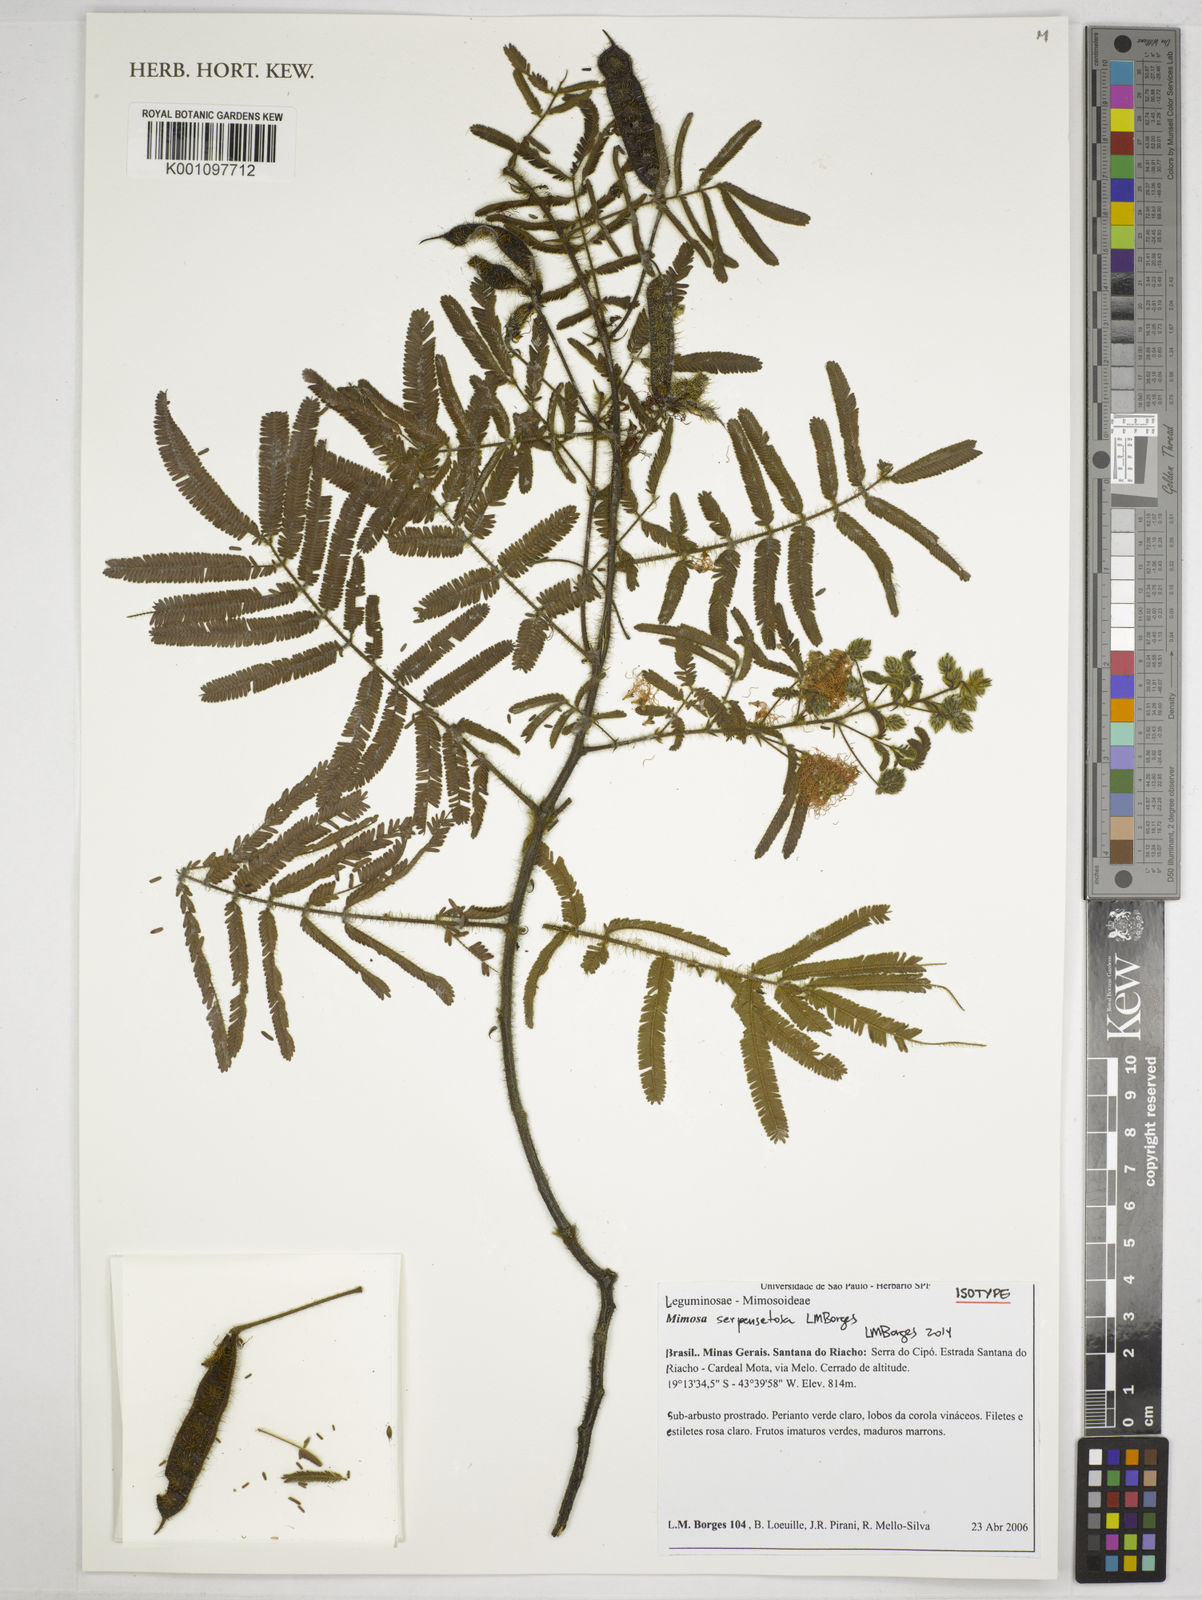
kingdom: Plantae
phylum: Tracheophyta
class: Magnoliopsida
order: Fabales
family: Fabaceae
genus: Mimosa
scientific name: Mimosa serpensetosa
